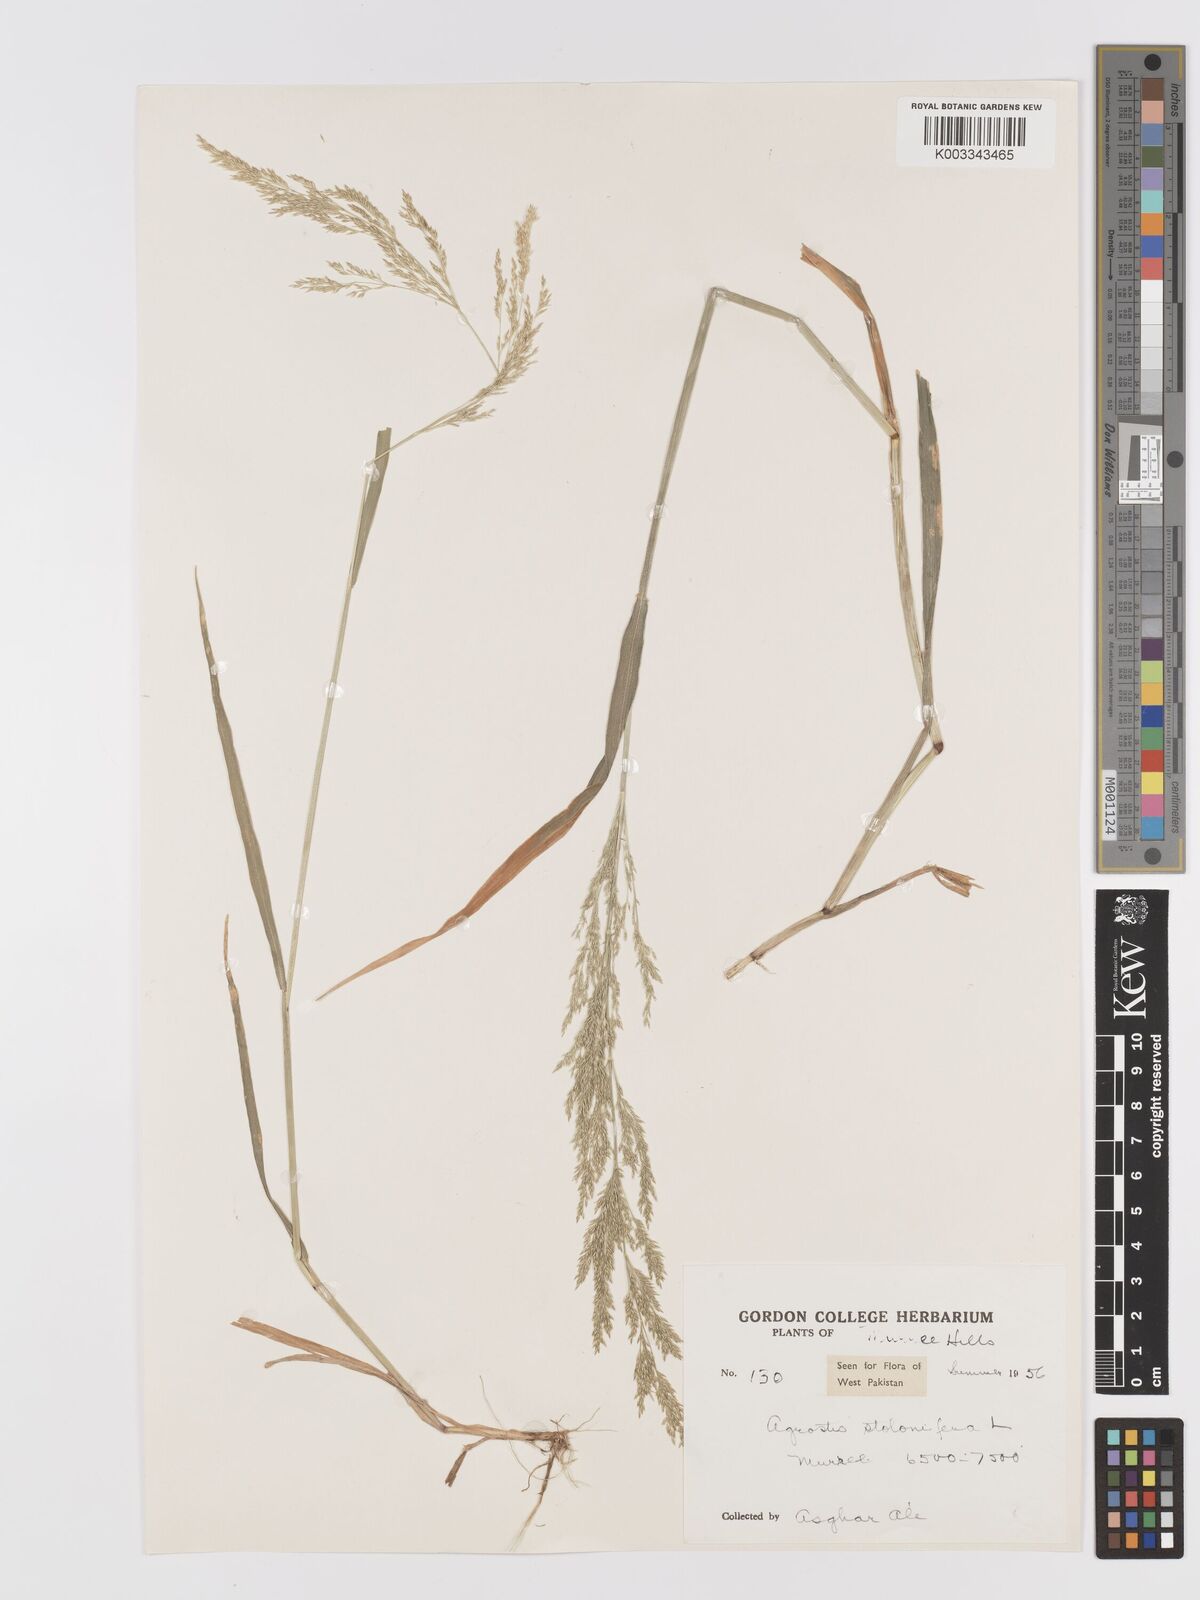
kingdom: Plantae
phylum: Tracheophyta
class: Liliopsida
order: Poales
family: Poaceae
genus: Agrostis
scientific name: Agrostis stolonifera
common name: Creeping bentgrass
